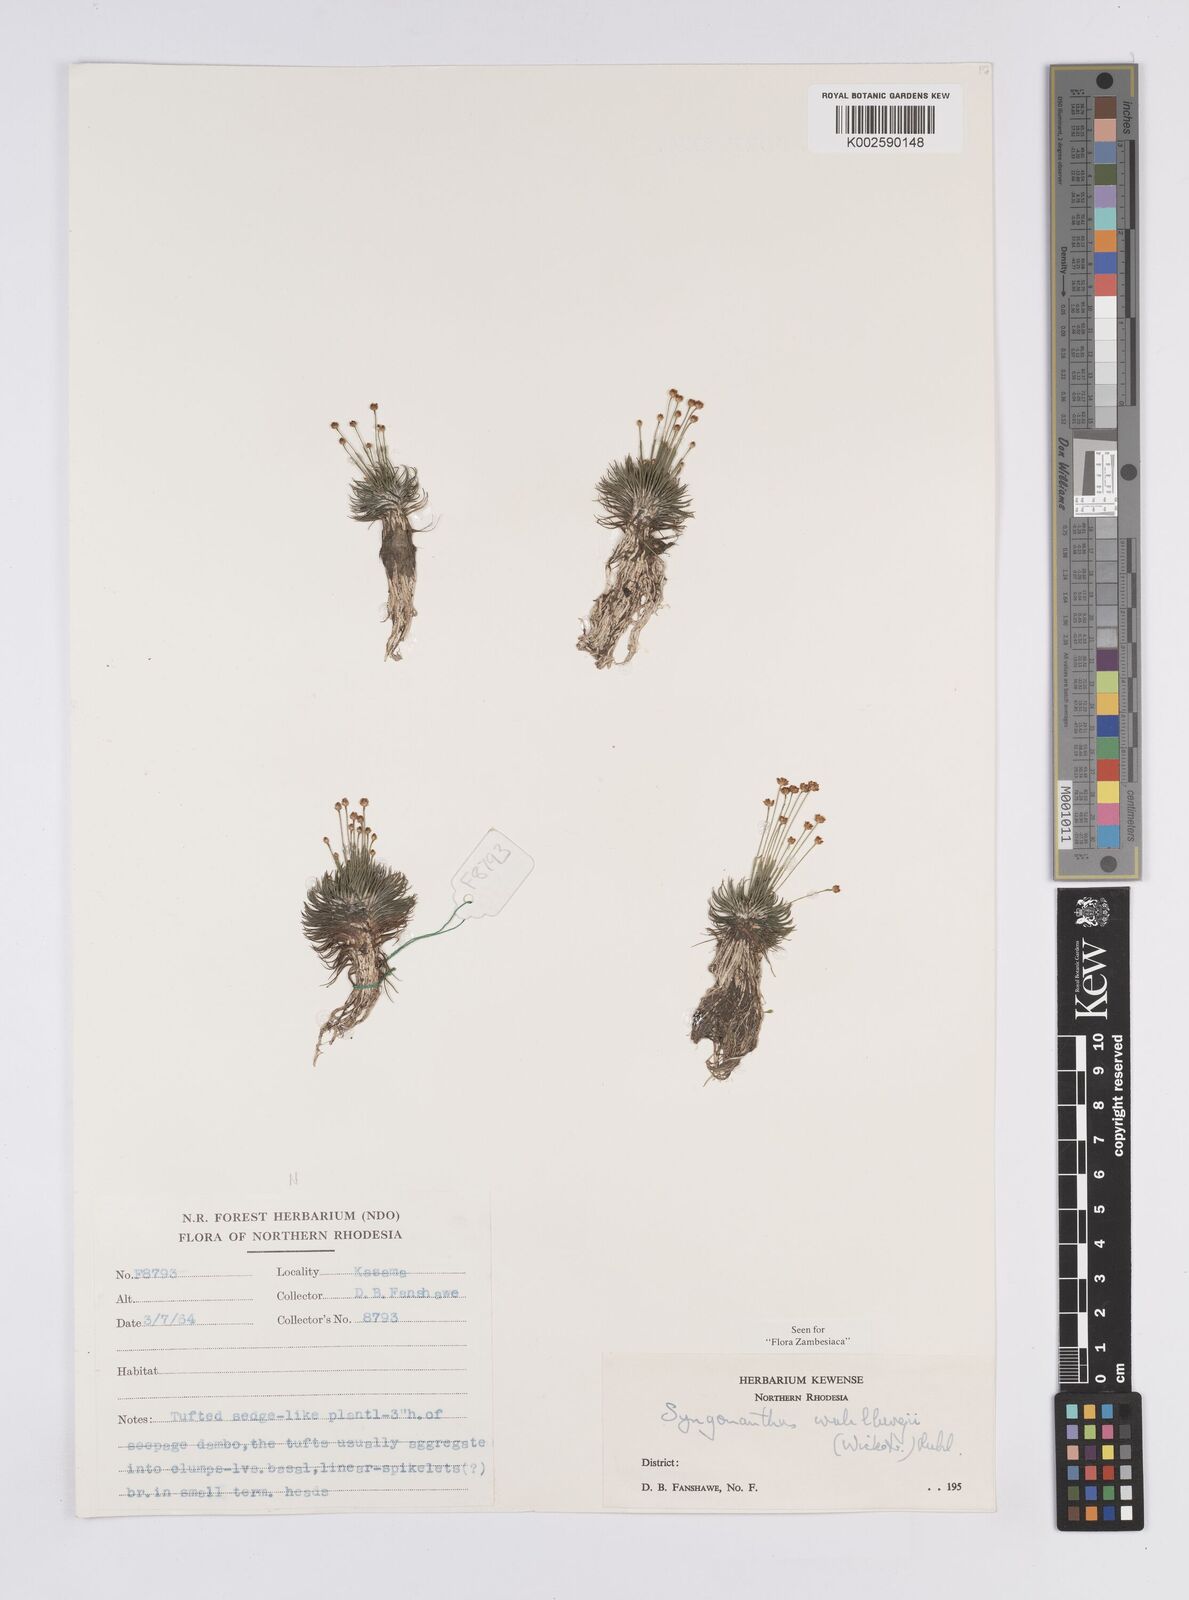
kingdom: Plantae
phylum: Tracheophyta
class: Liliopsida
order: Poales
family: Eriocaulaceae
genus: Syngonanthus
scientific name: Syngonanthus wahlbergii
